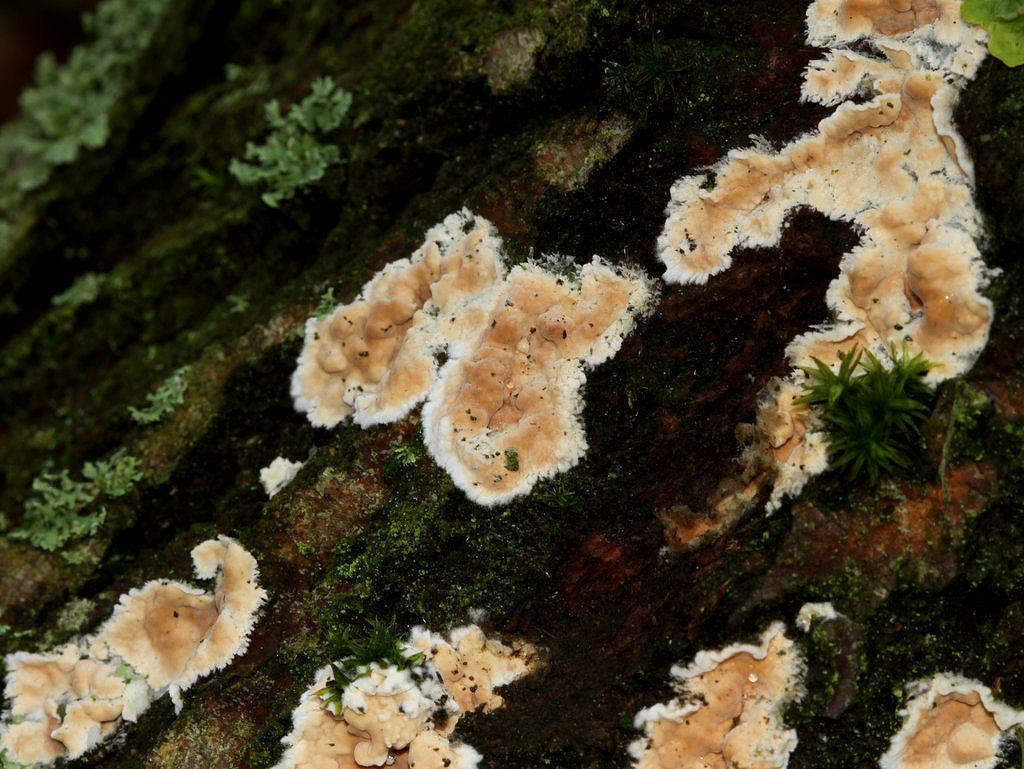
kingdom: Fungi
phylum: Basidiomycota
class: Agaricomycetes
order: Agaricales
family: Physalacriaceae
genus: Cylindrobasidium
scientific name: Cylindrobasidium evolvens
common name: sprækkehinde
